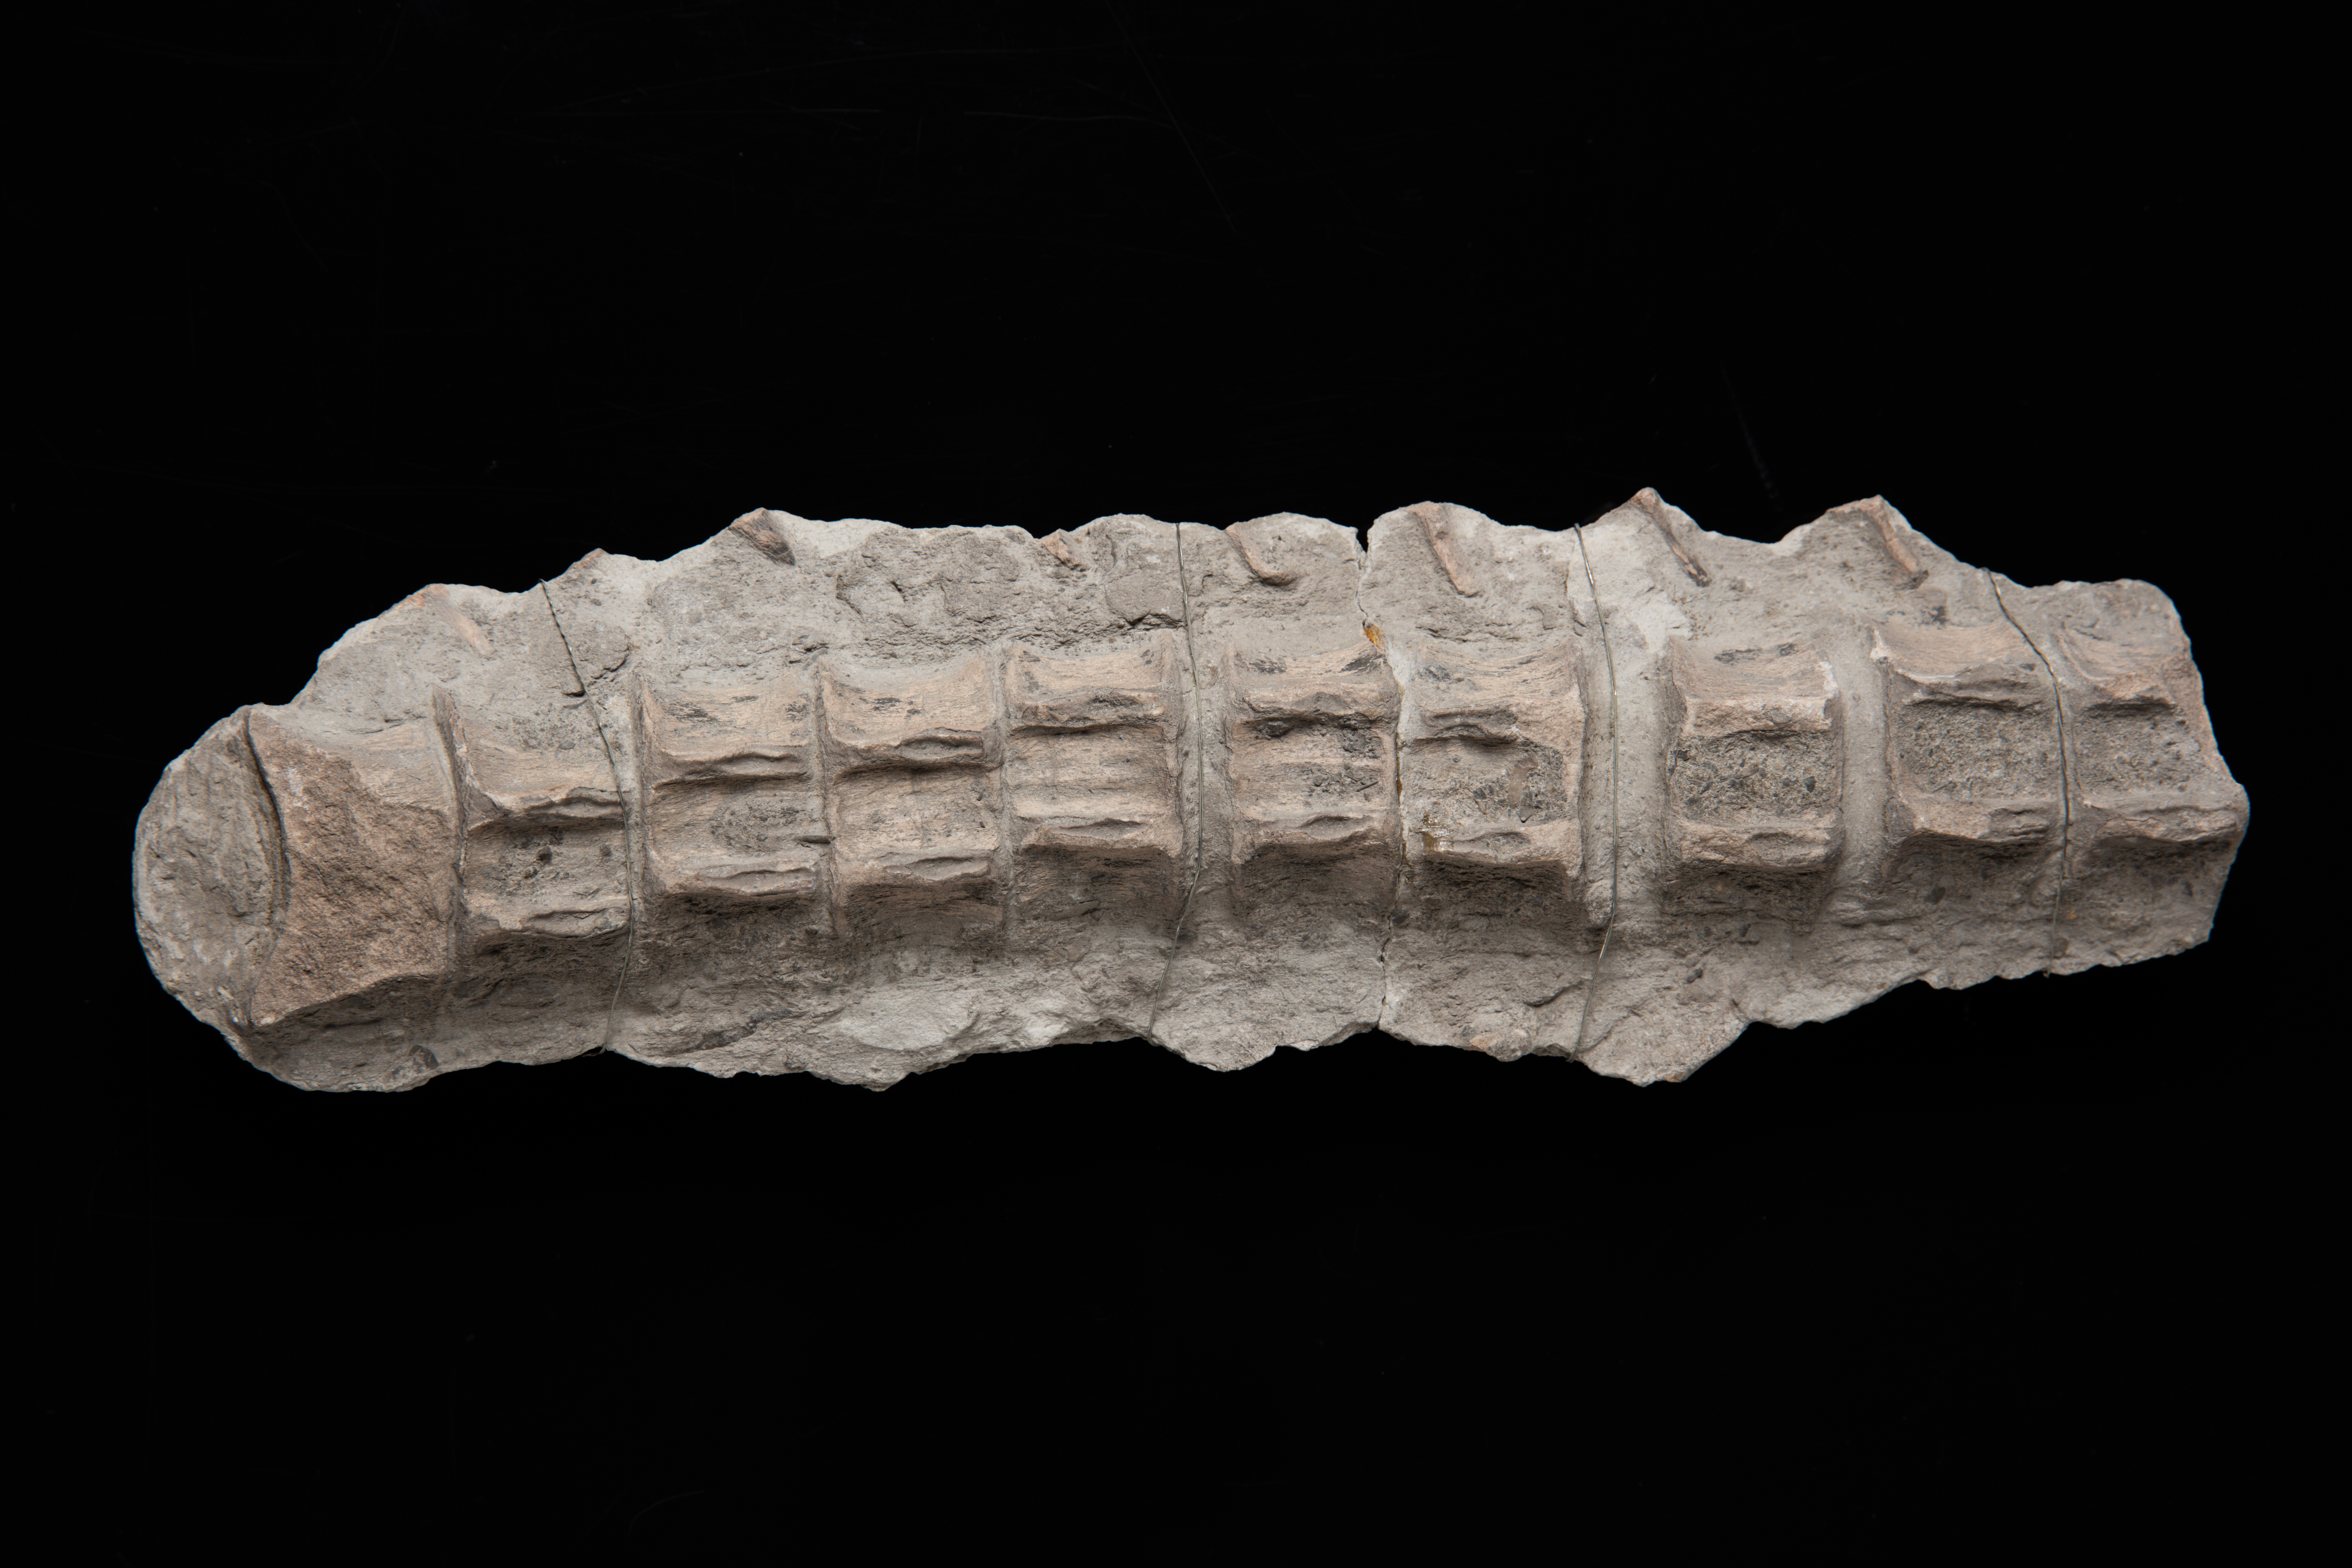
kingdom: Animalia
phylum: Chordata
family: Ichthyosauridae
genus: Ichthyosaurus
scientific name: Ichthyosaurus
